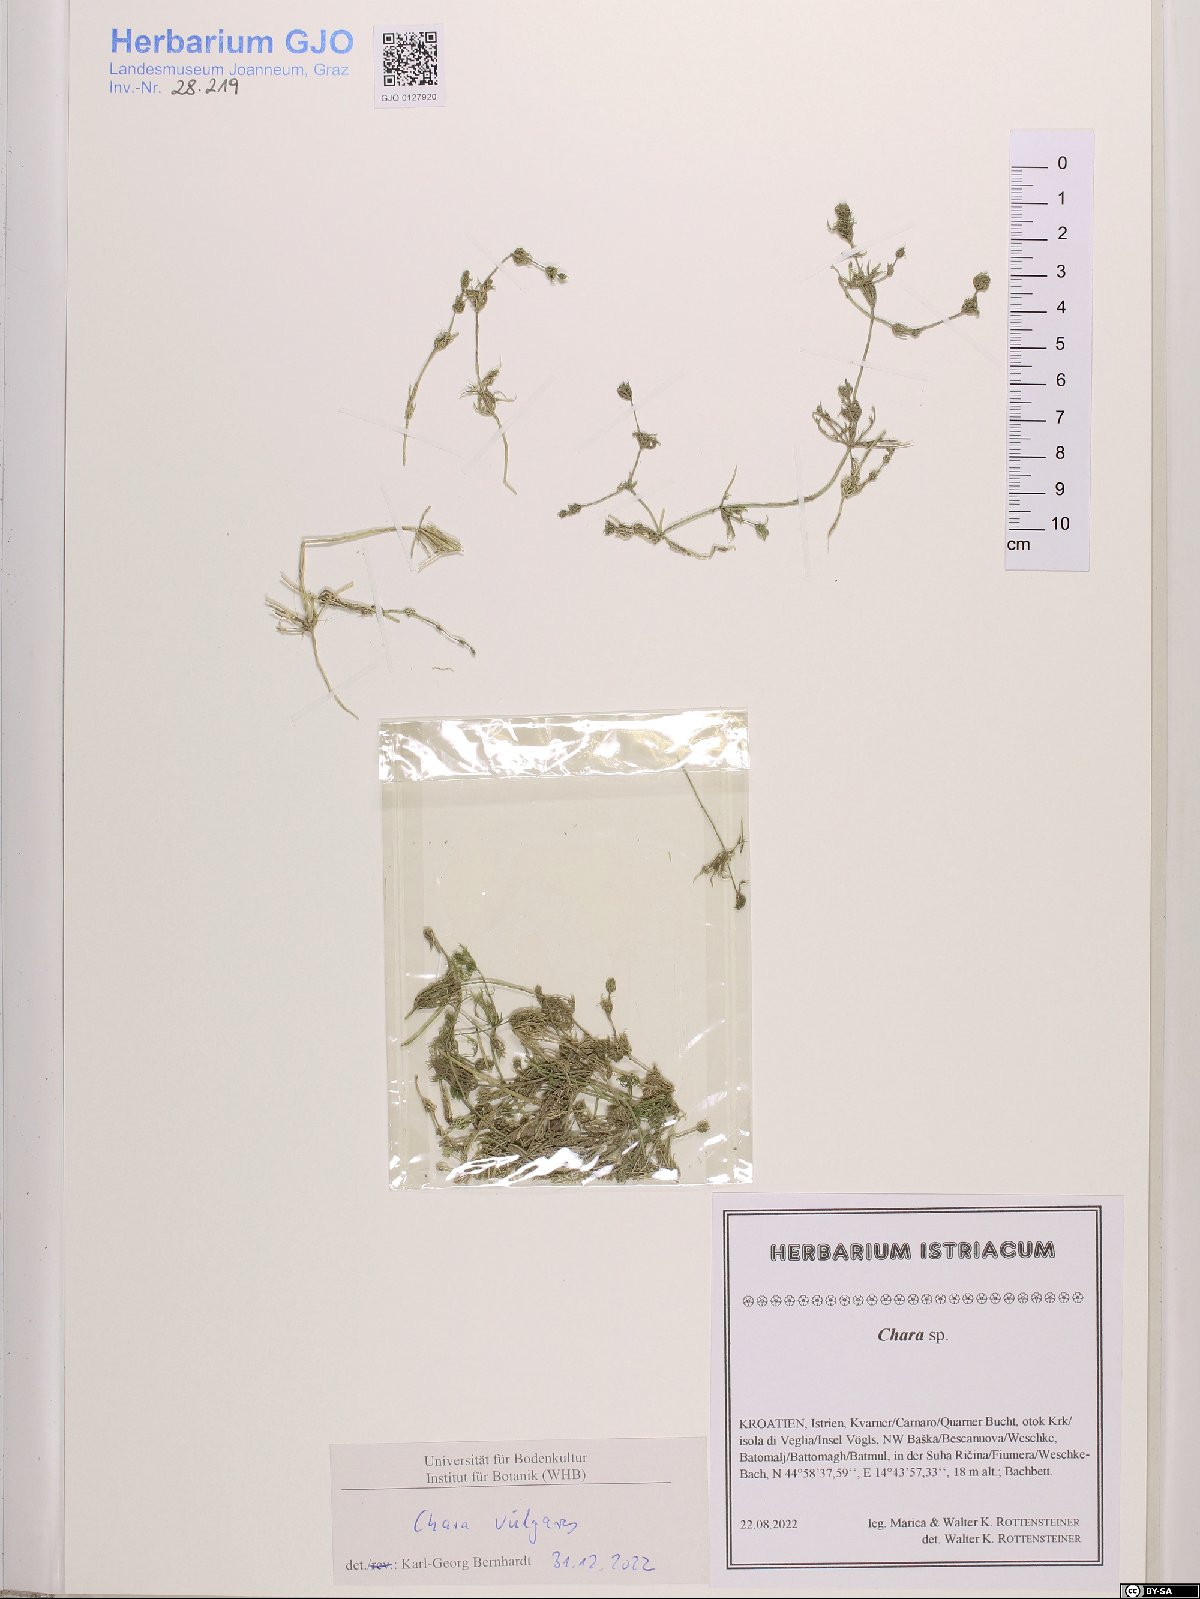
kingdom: Plantae
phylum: Charophyta
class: Charophyceae
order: Charales
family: Characeae
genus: Chara
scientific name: Chara vulgaris
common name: Common stonewort
